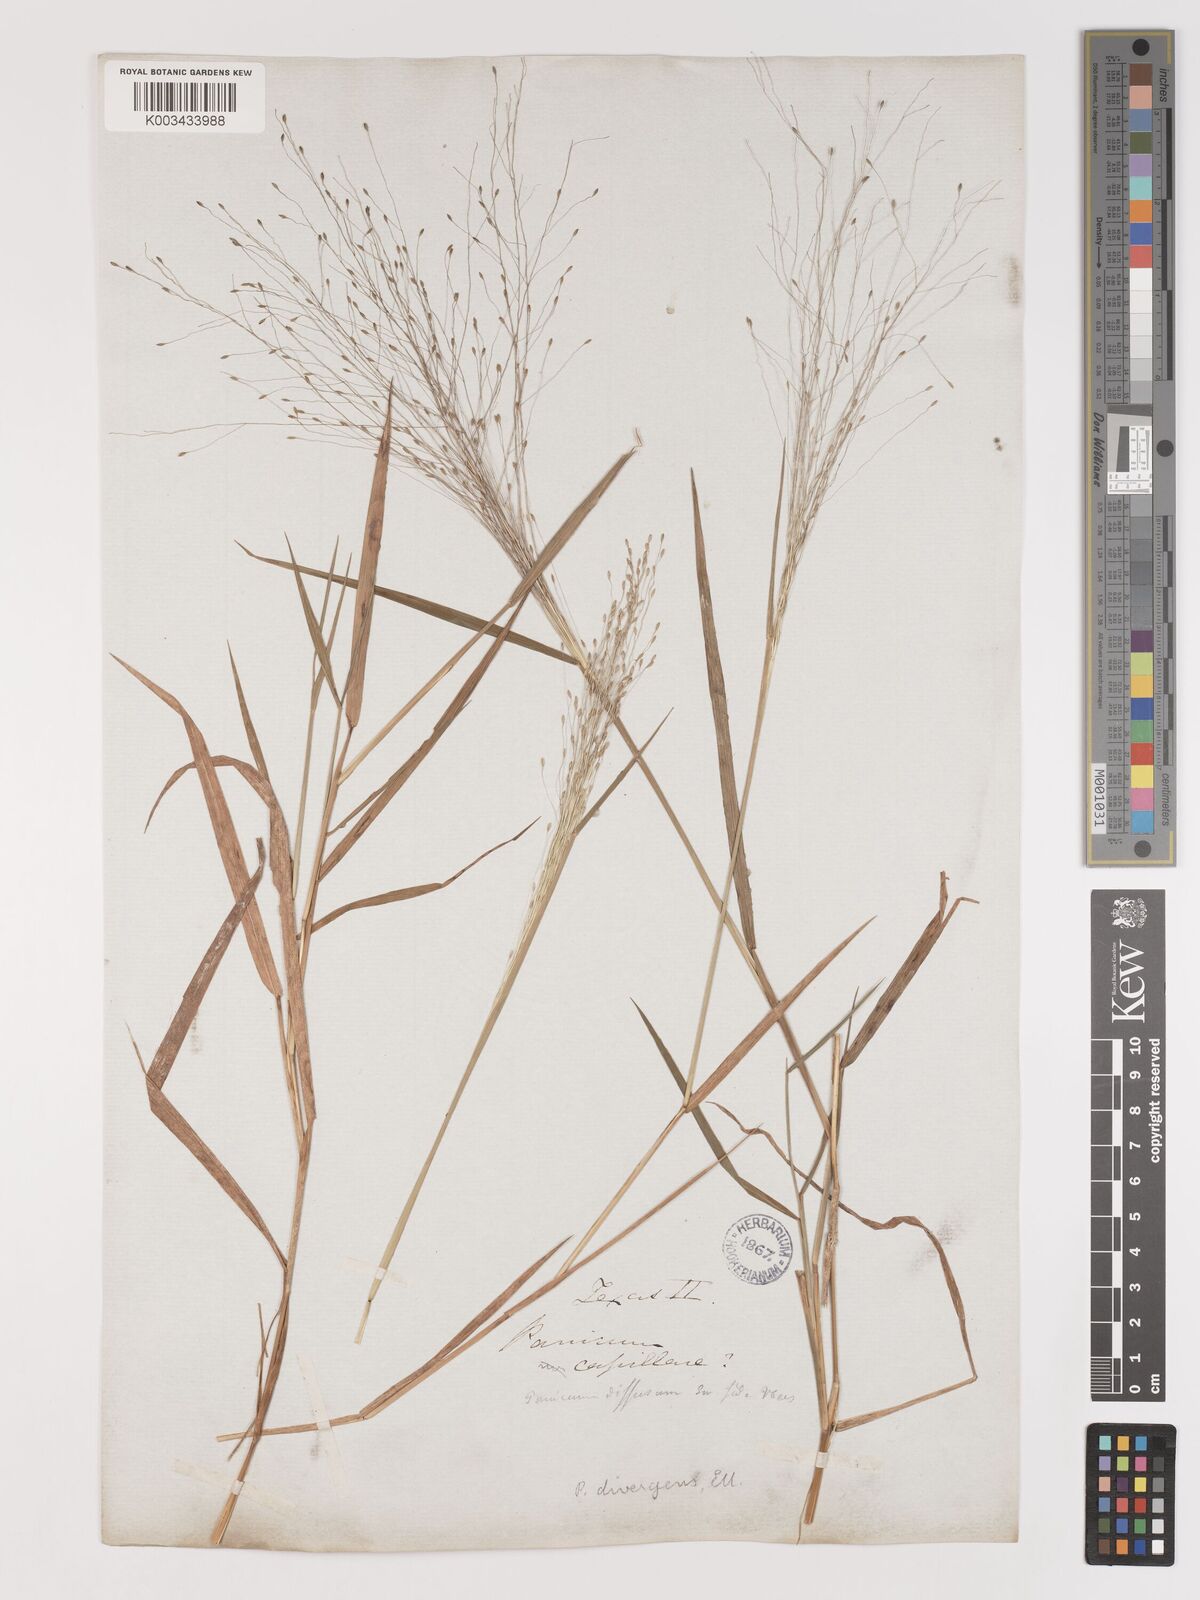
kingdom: Plantae
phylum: Tracheophyta
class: Liliopsida
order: Poales
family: Poaceae
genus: Digitaria
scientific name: Digitaria
